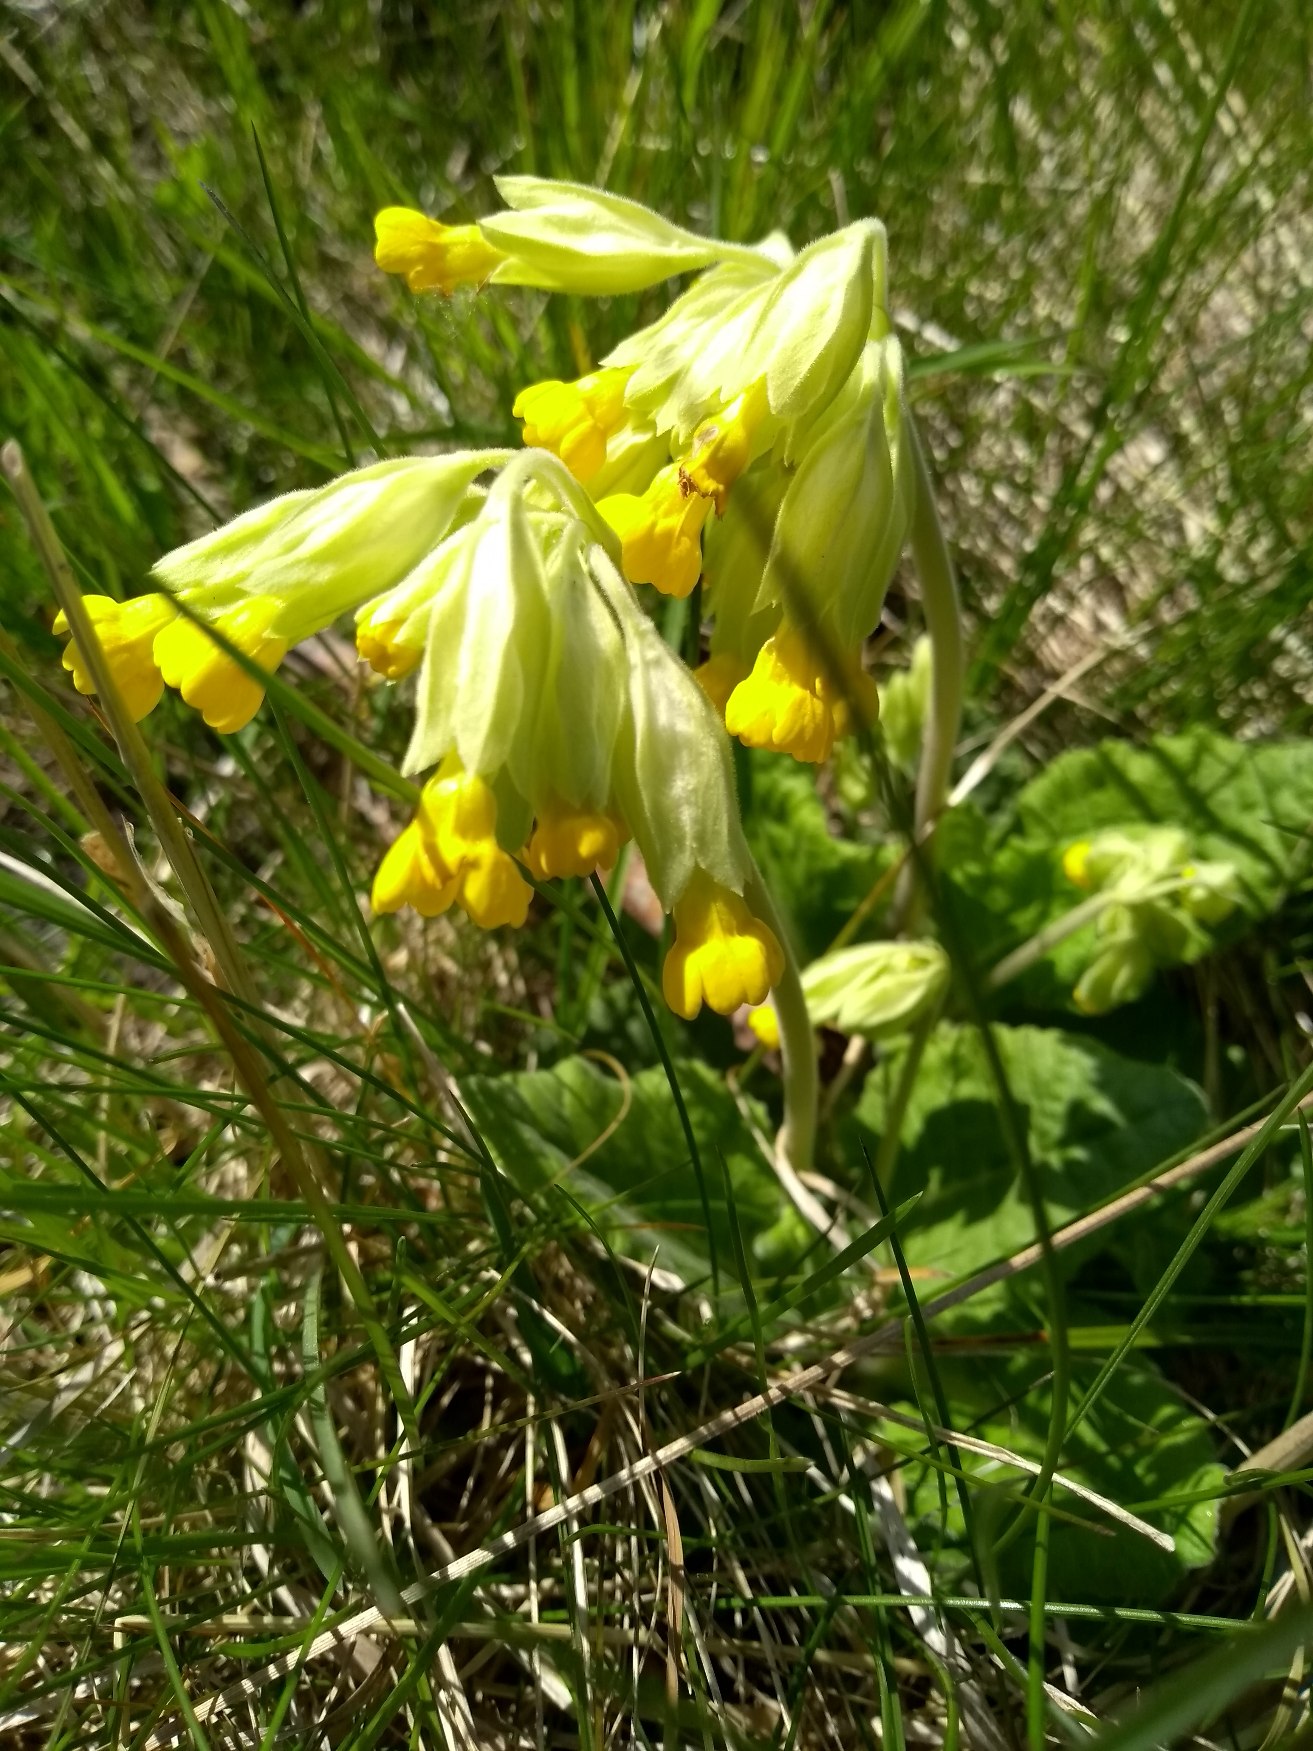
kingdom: Plantae
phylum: Tracheophyta
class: Magnoliopsida
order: Ericales
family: Primulaceae
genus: Primula
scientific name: Primula veris
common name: Hulkravet kodriver
